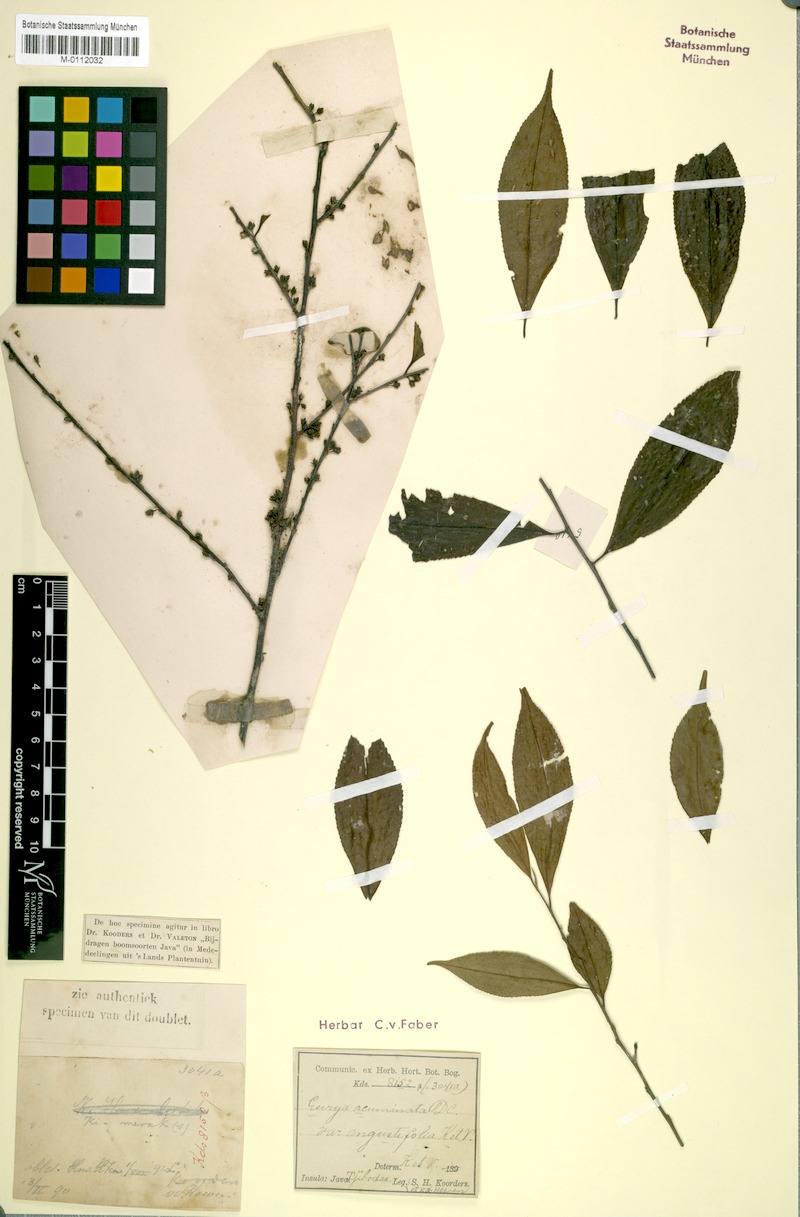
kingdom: Plantae
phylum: Tracheophyta
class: Magnoliopsida
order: Ericales
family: Pentaphylacaceae
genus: Eurya
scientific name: Eurya acuminata
